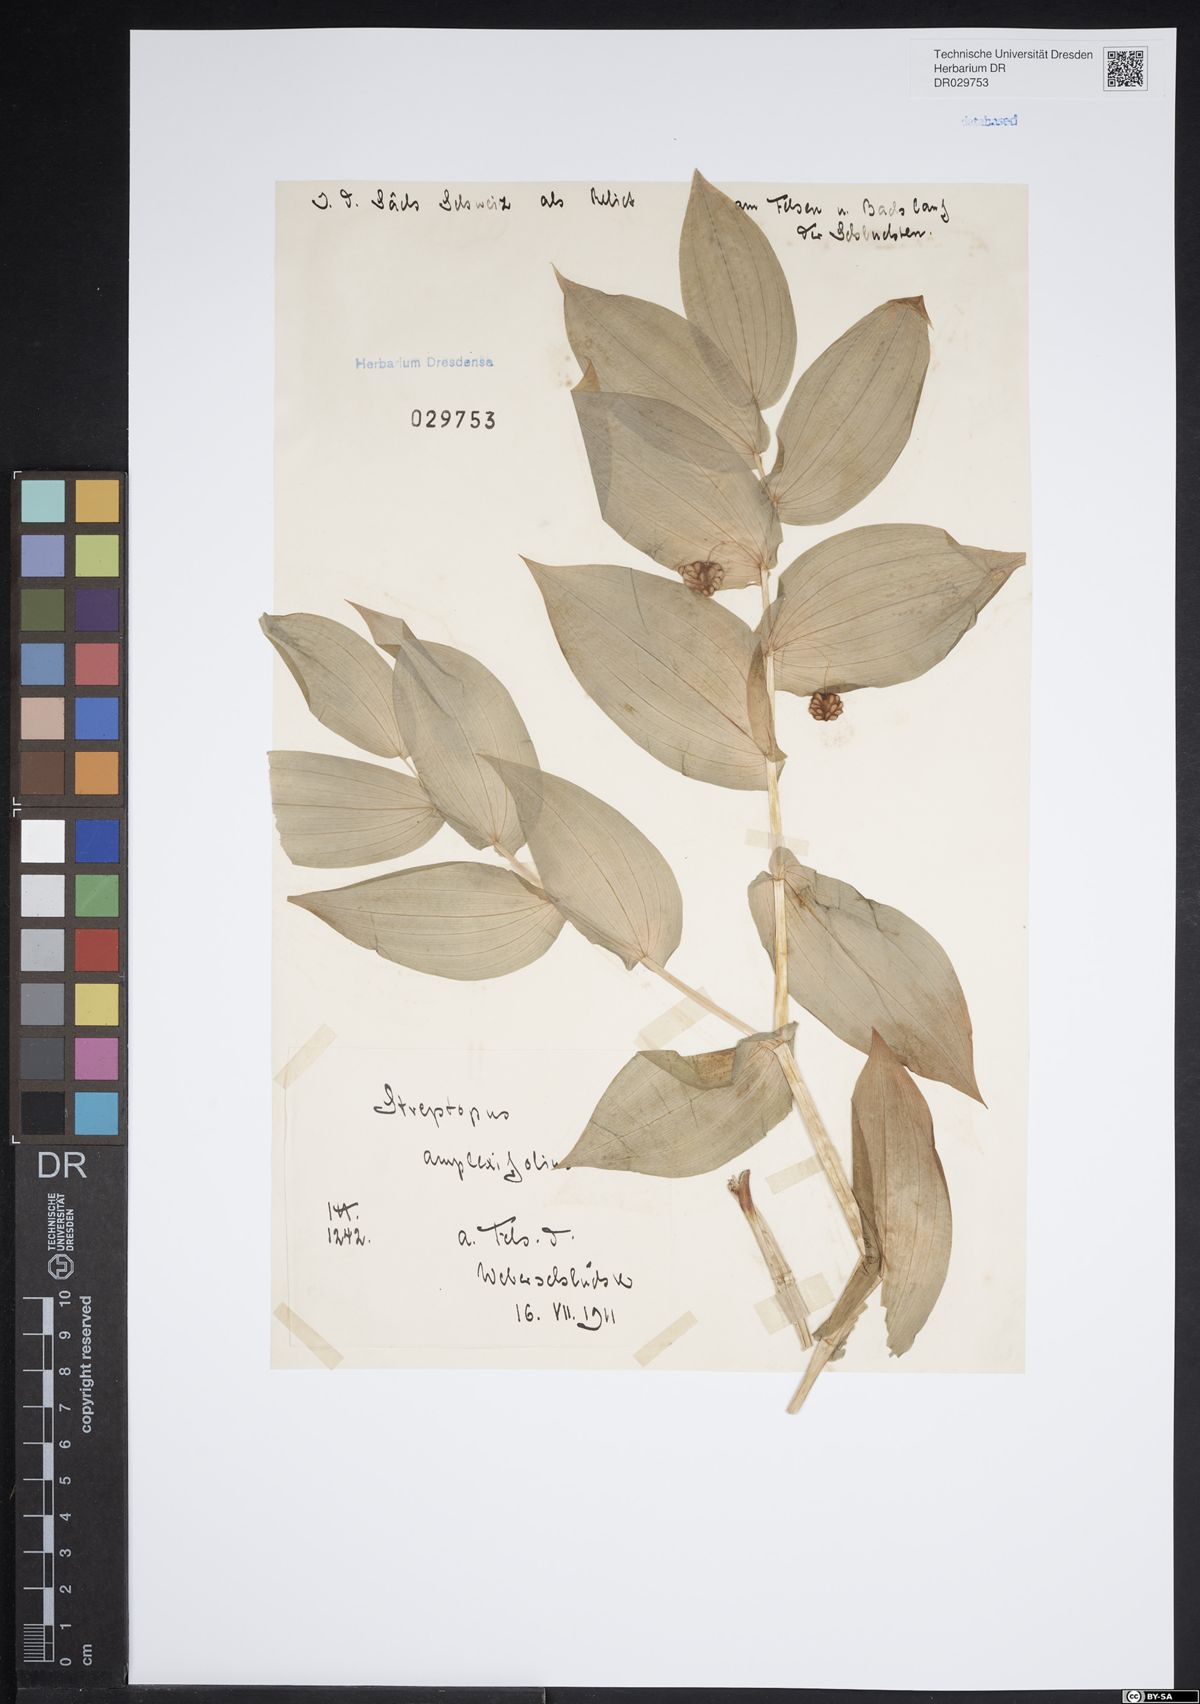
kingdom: Plantae
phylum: Tracheophyta
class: Liliopsida
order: Liliales
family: Liliaceae
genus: Streptopus
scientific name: Streptopus amplexifolius
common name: Clasp twisted stalk
